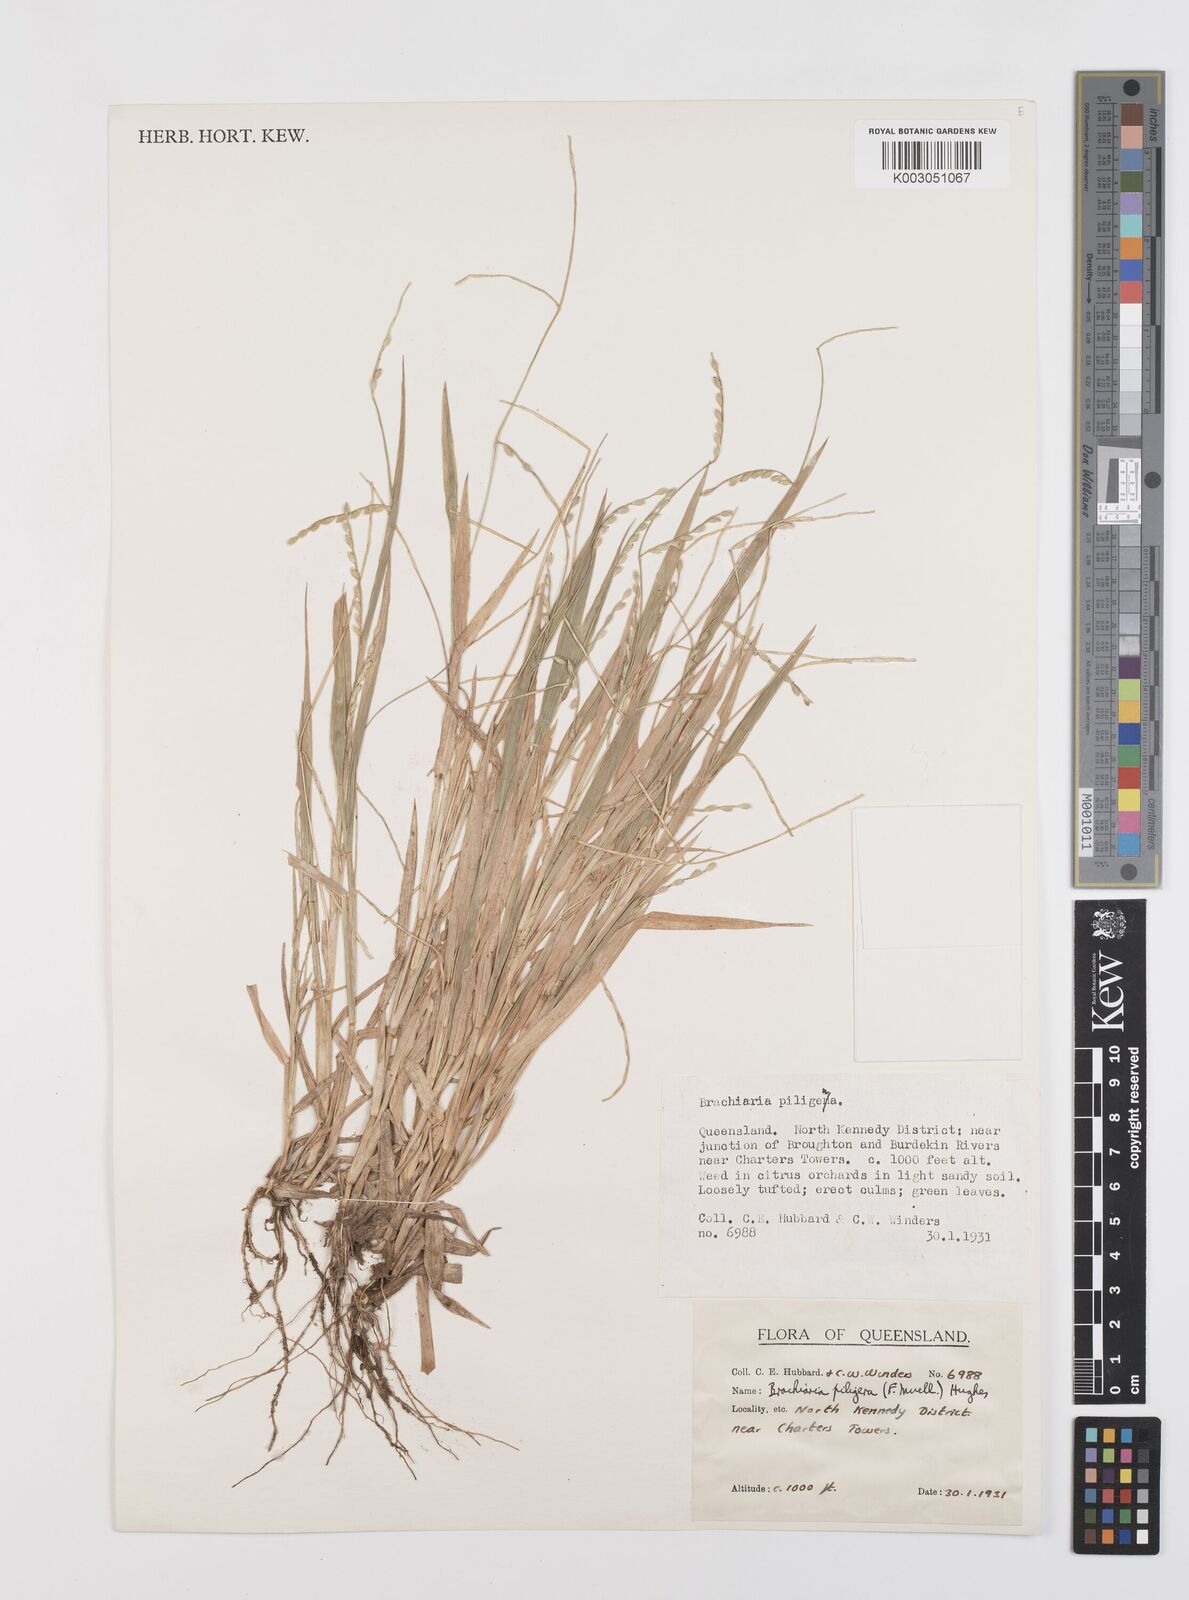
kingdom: Plantae
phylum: Tracheophyta
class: Liliopsida
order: Poales
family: Poaceae
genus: Urochloa
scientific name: Urochloa piligera
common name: Wattle signalgrass
